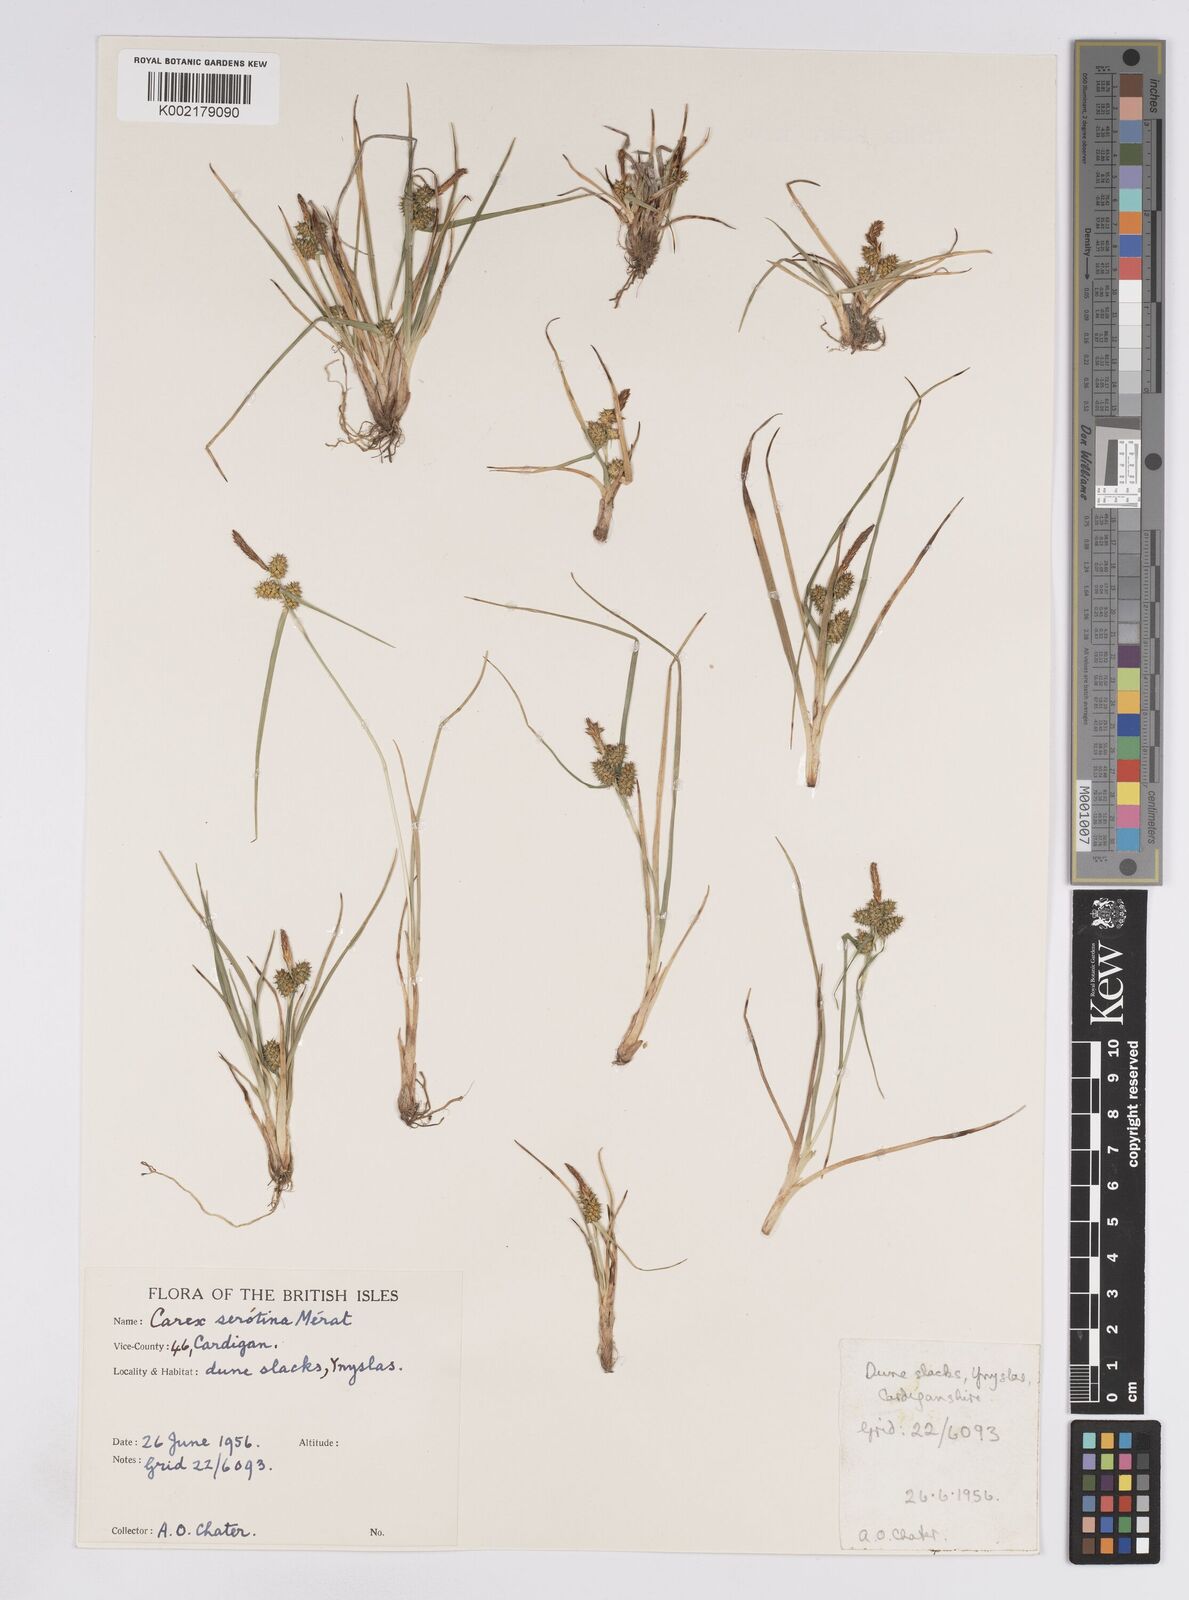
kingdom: Plantae
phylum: Tracheophyta
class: Liliopsida
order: Poales
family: Cyperaceae
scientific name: Cyperaceae
